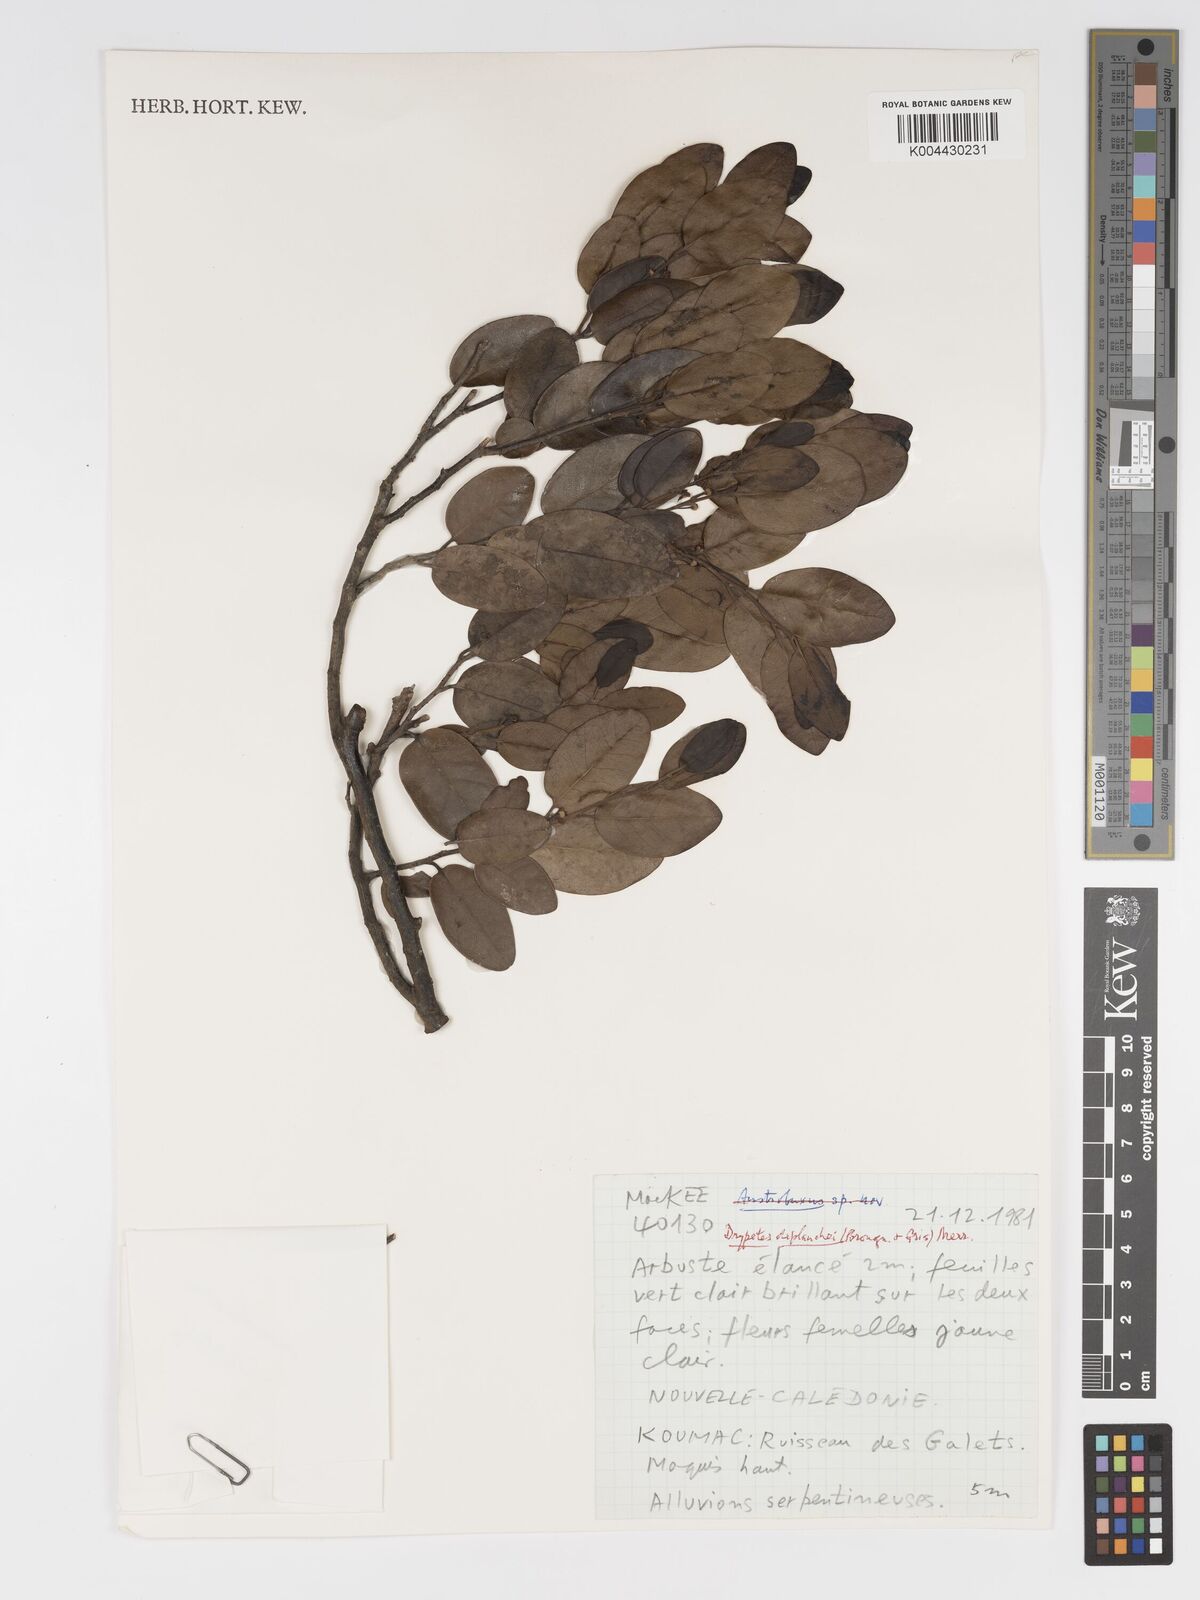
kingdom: Plantae
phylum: Tracheophyta
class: Magnoliopsida
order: Malpighiales
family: Putranjivaceae
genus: Drypetes
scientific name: Drypetes deplanchei
